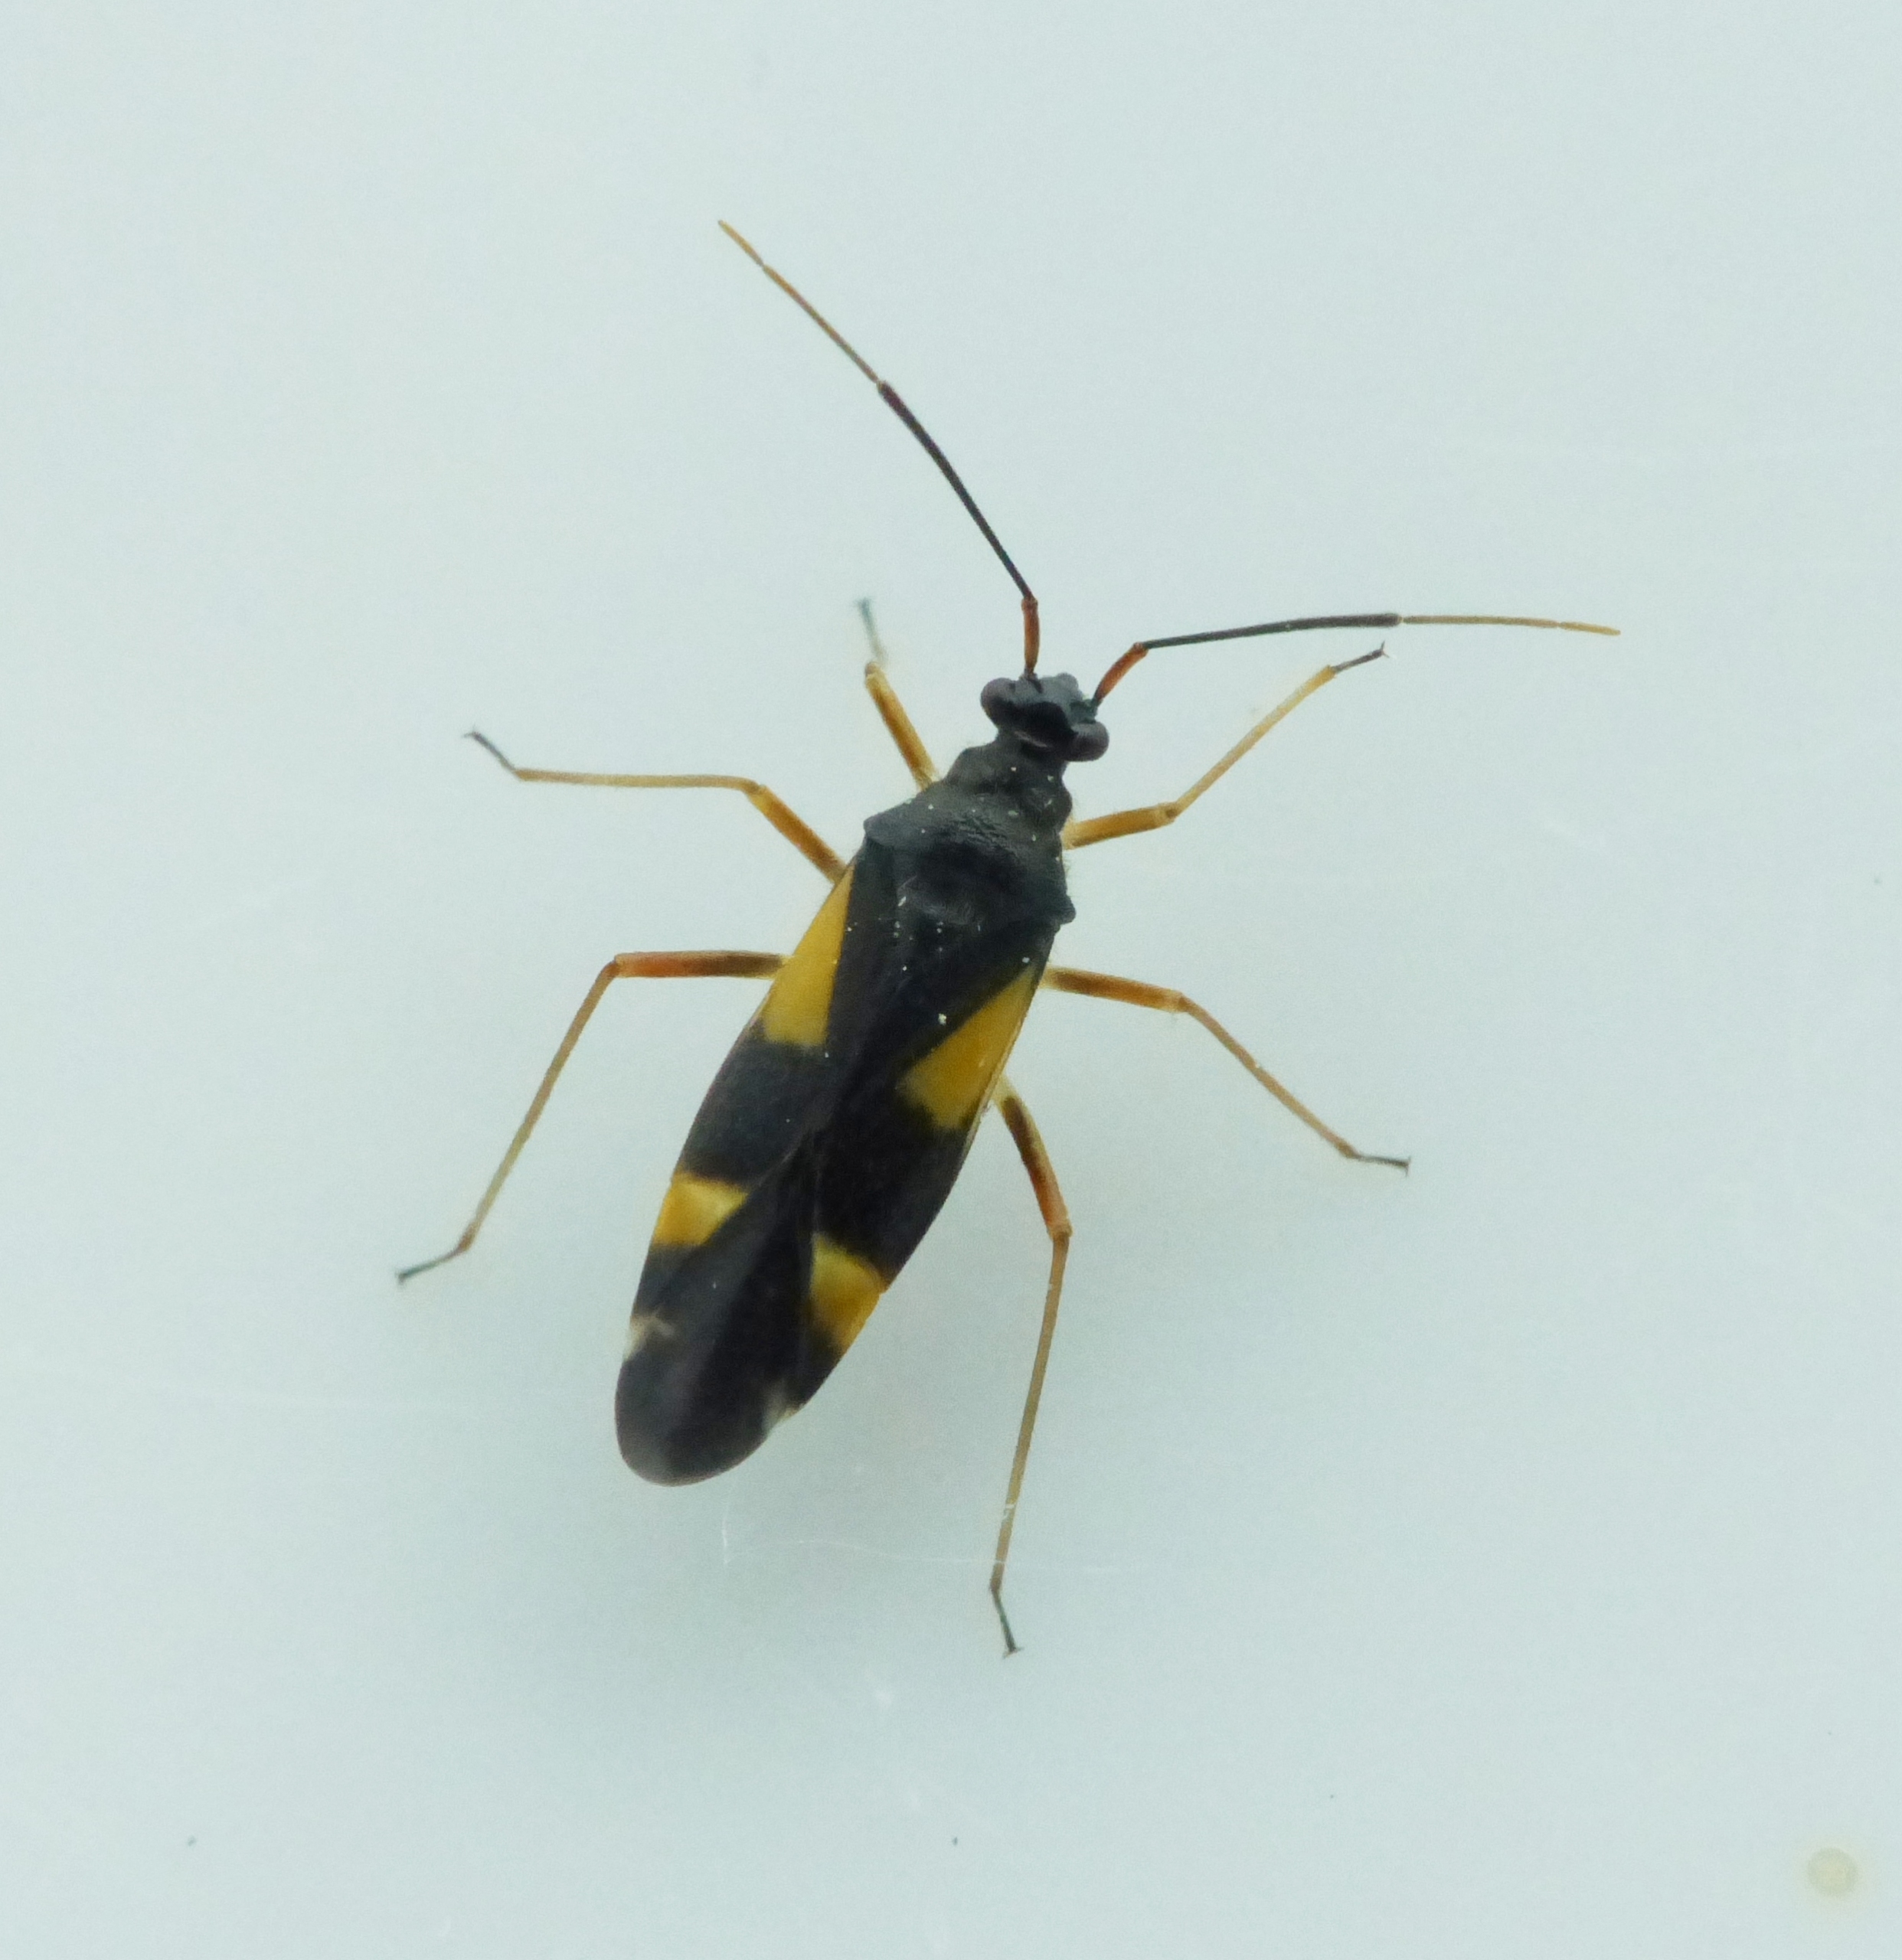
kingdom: Animalia
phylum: Arthropoda
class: Insecta
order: Hemiptera
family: Miridae
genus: Dryophilocoris
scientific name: Dryophilocoris flavoquadrimaculatus
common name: Fireplettet blomstertæge
